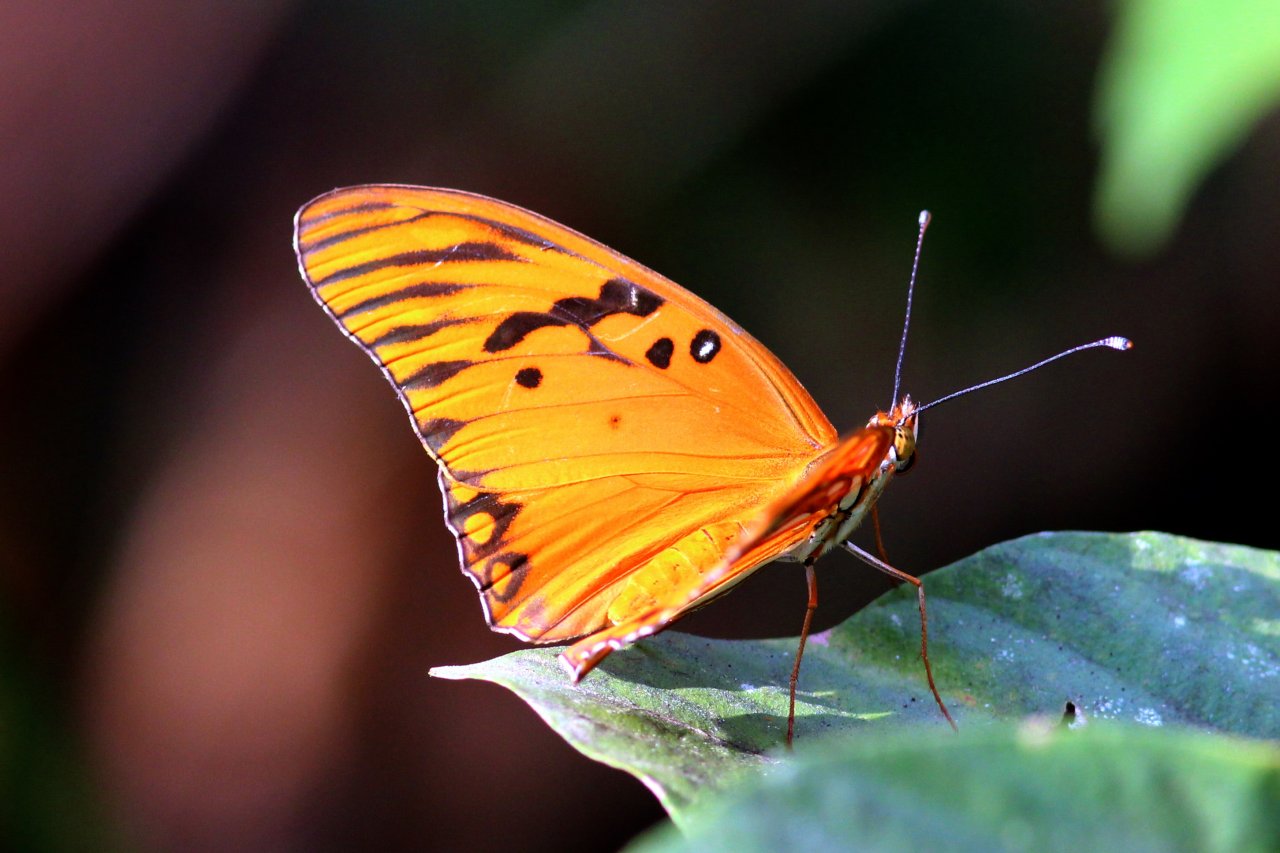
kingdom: Animalia
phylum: Arthropoda
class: Insecta
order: Lepidoptera
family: Nymphalidae
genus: Dione
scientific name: Dione vanillae
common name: Gulf Fritillary
